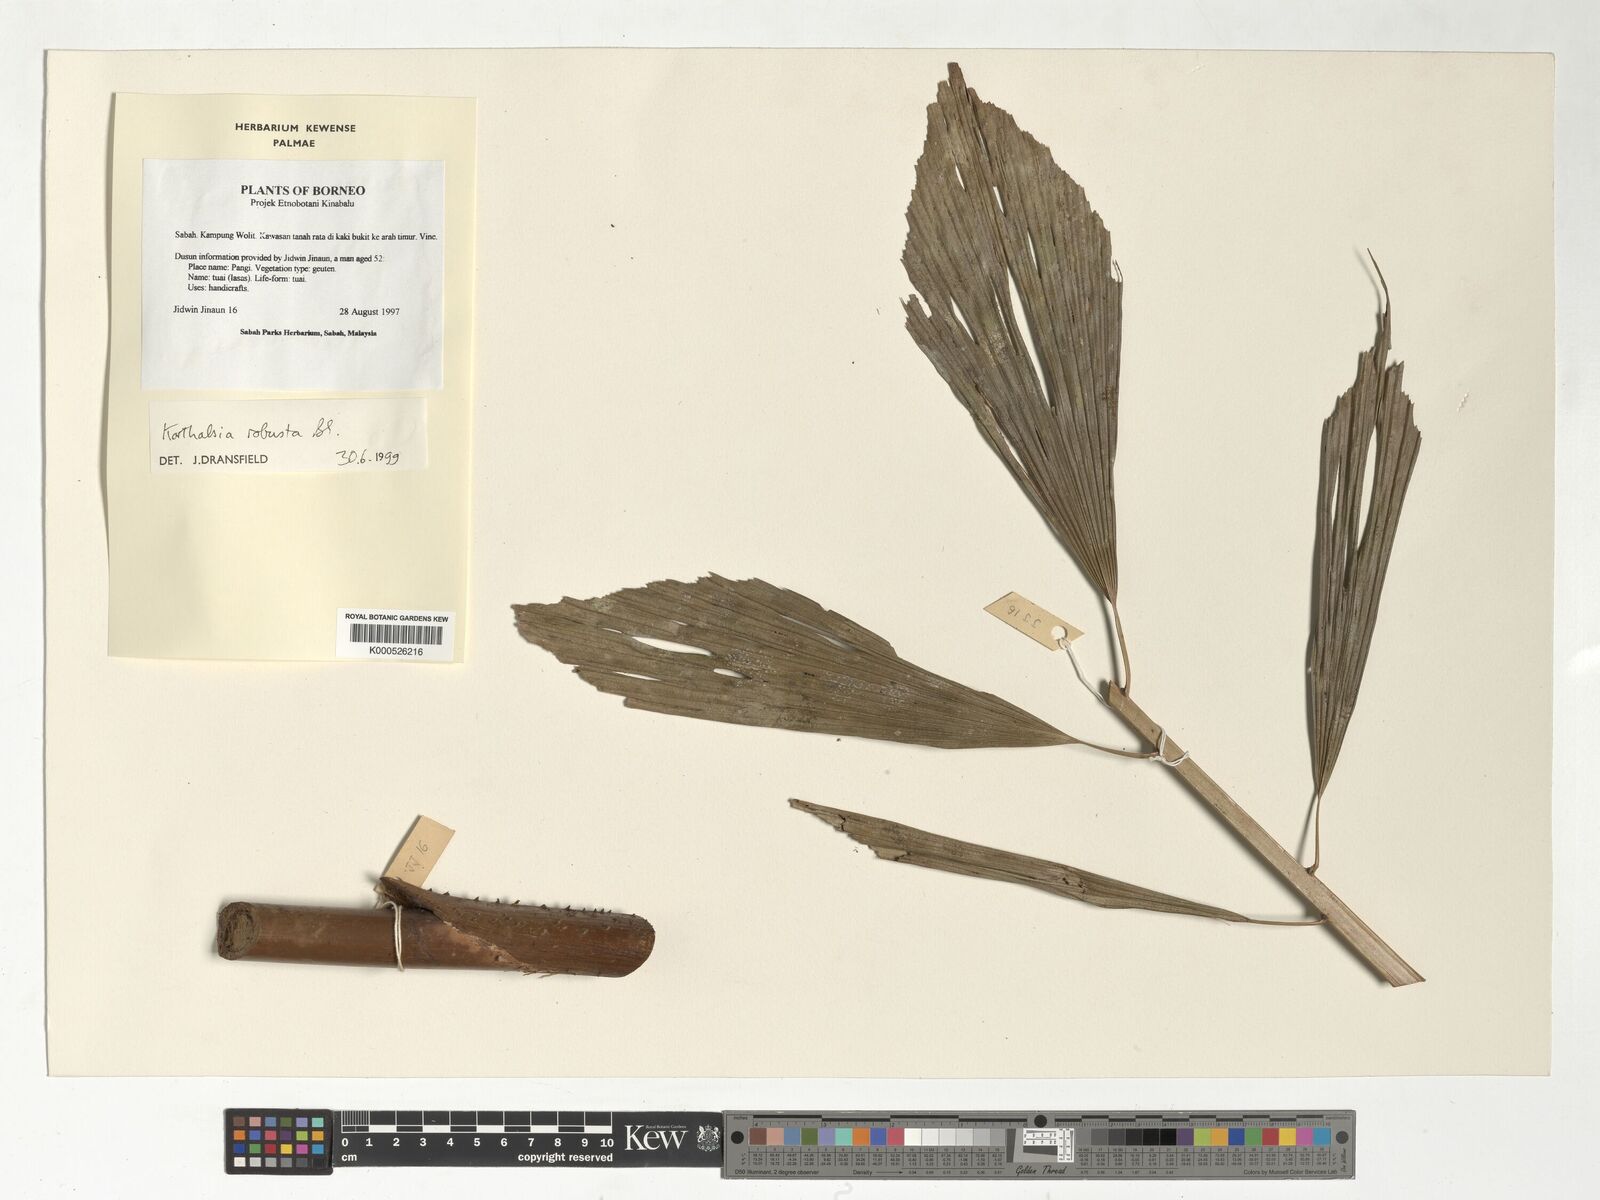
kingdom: Plantae
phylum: Tracheophyta
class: Liliopsida
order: Arecales
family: Arecaceae
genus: Korthalsia
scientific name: Korthalsia robusta
